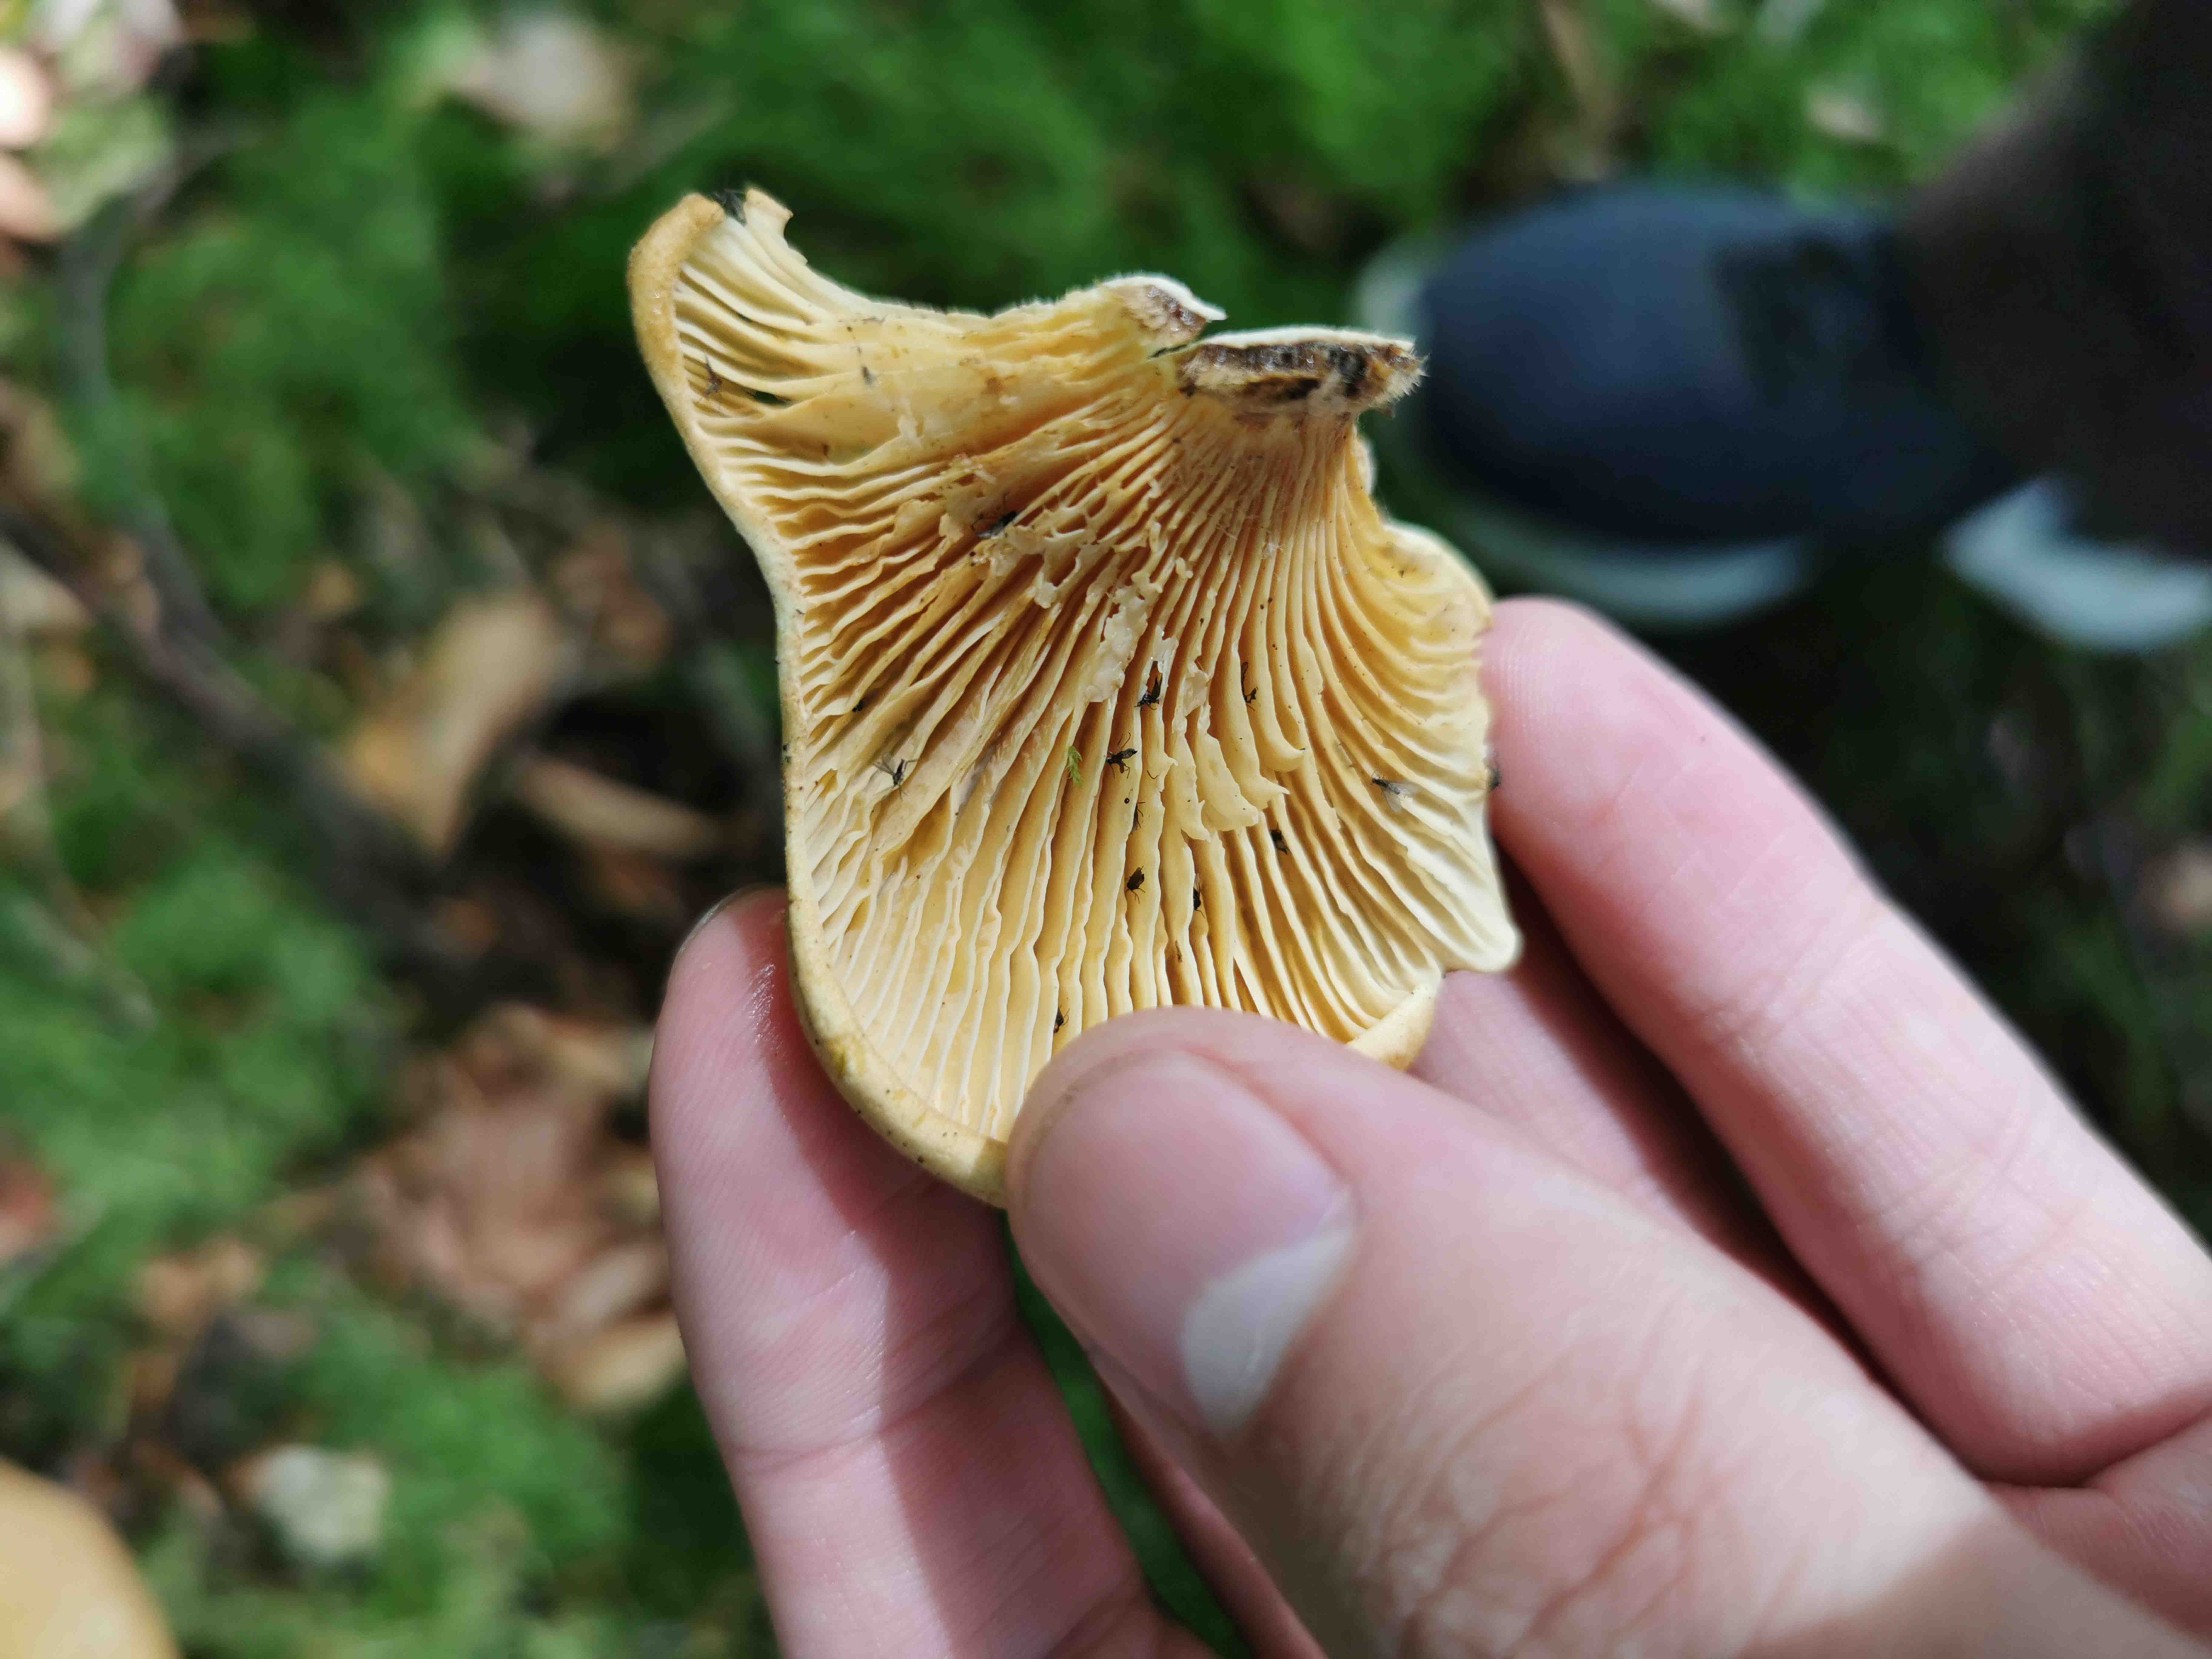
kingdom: Fungi
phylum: Basidiomycota
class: Agaricomycetes
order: Boletales
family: Tapinellaceae
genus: Tapinella
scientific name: Tapinella
